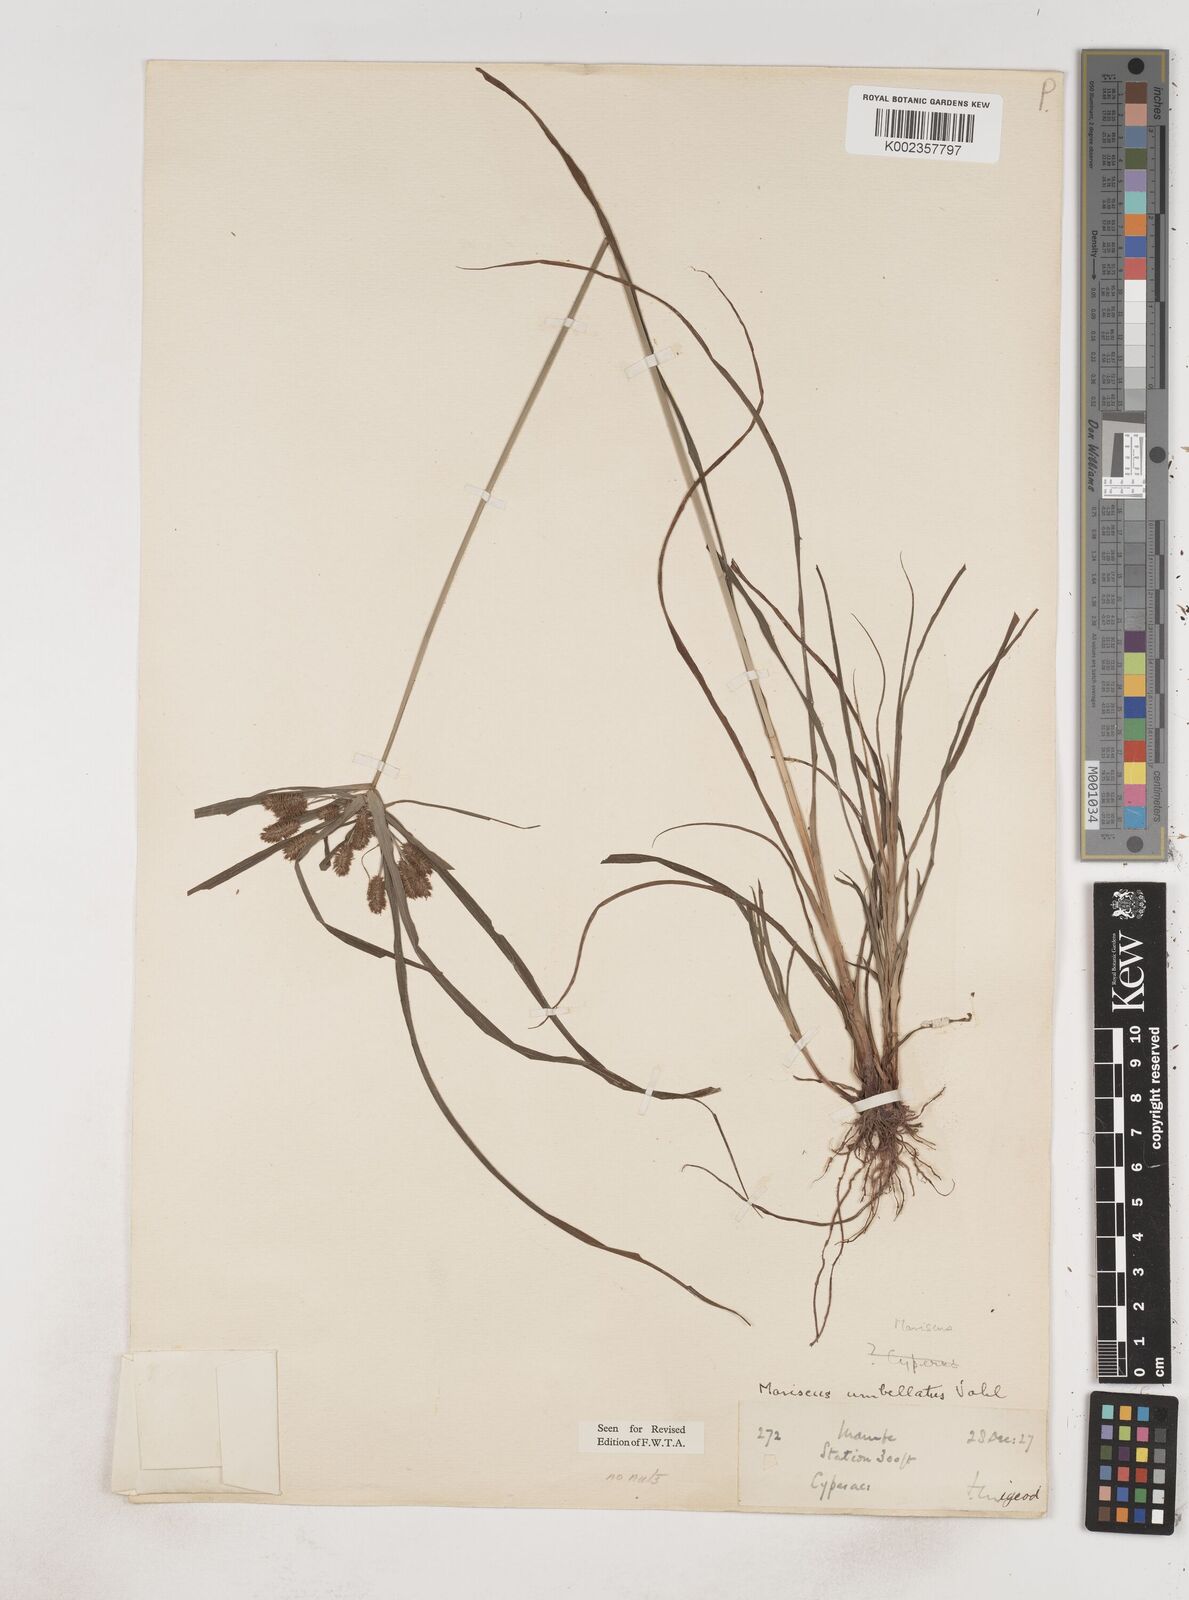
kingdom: Plantae
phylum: Tracheophyta
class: Liliopsida
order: Poales
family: Cyperaceae
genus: Cyperus
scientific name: Cyperus sublimis
